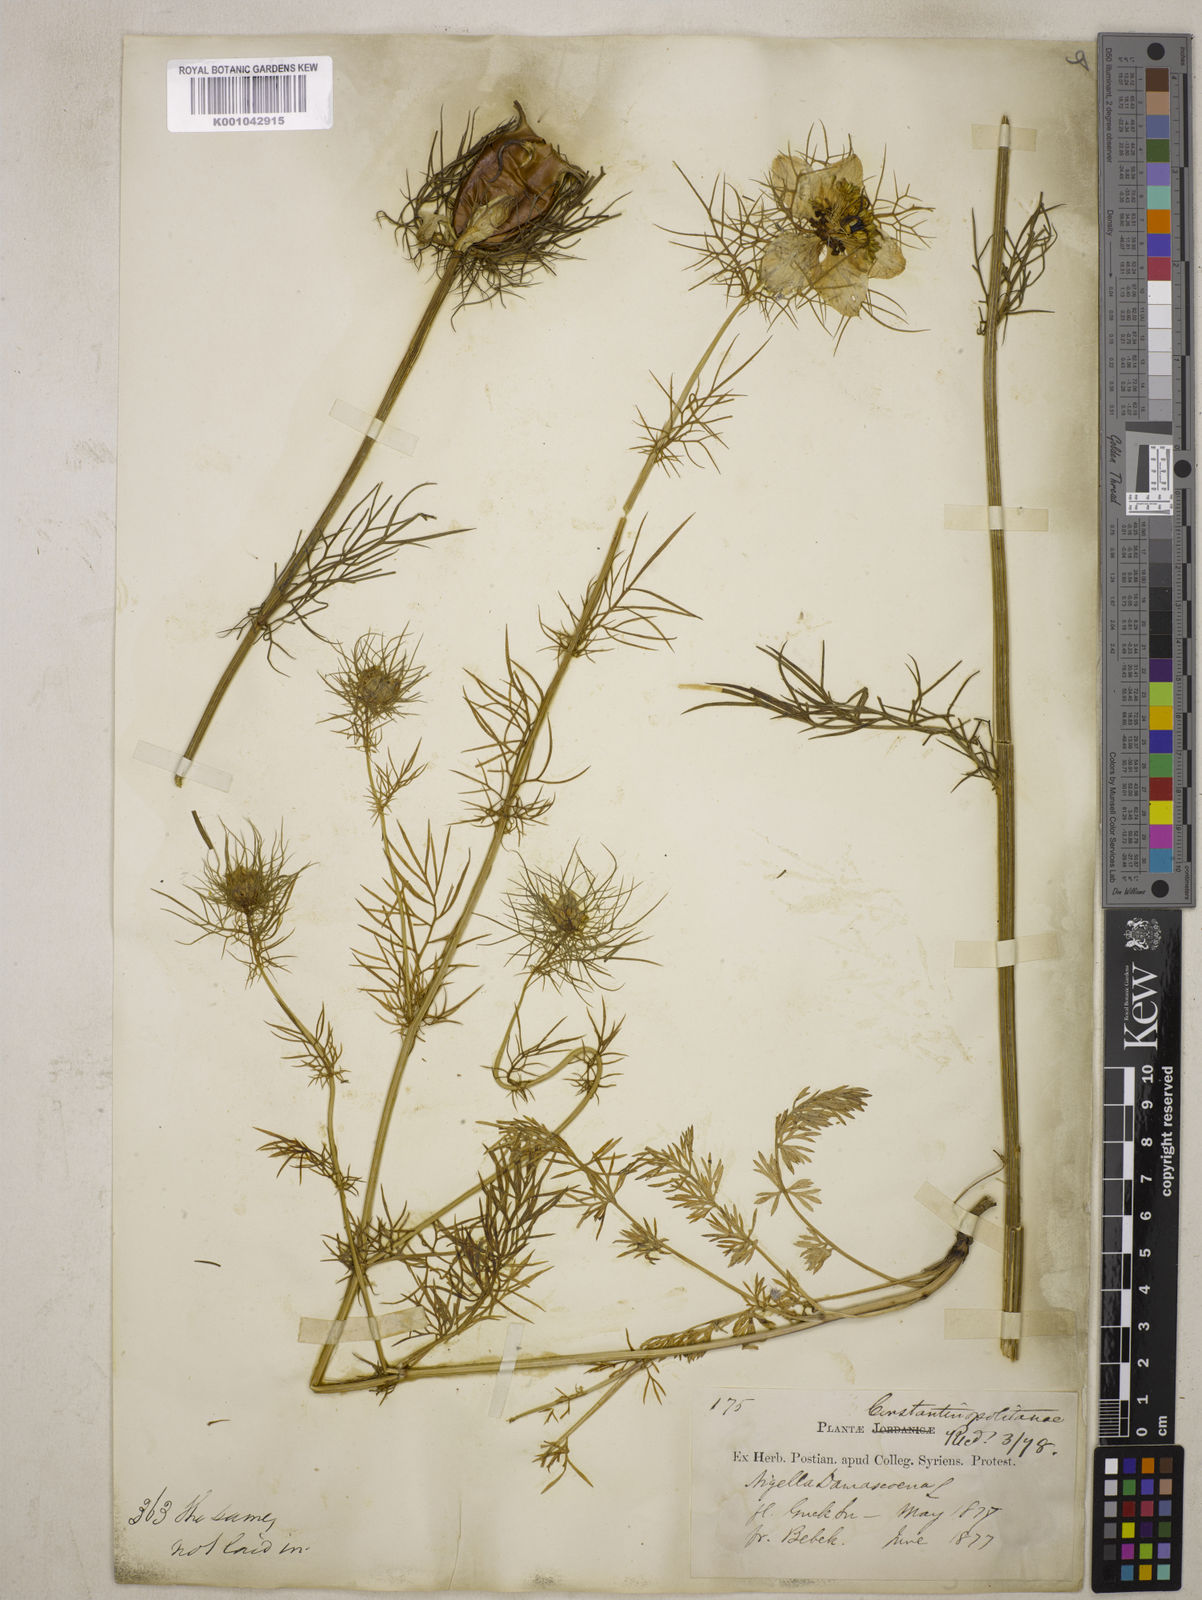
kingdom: Plantae
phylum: Tracheophyta
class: Magnoliopsida
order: Ranunculales
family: Ranunculaceae
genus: Nigella
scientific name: Nigella damascena
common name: Love-in-a-mist
